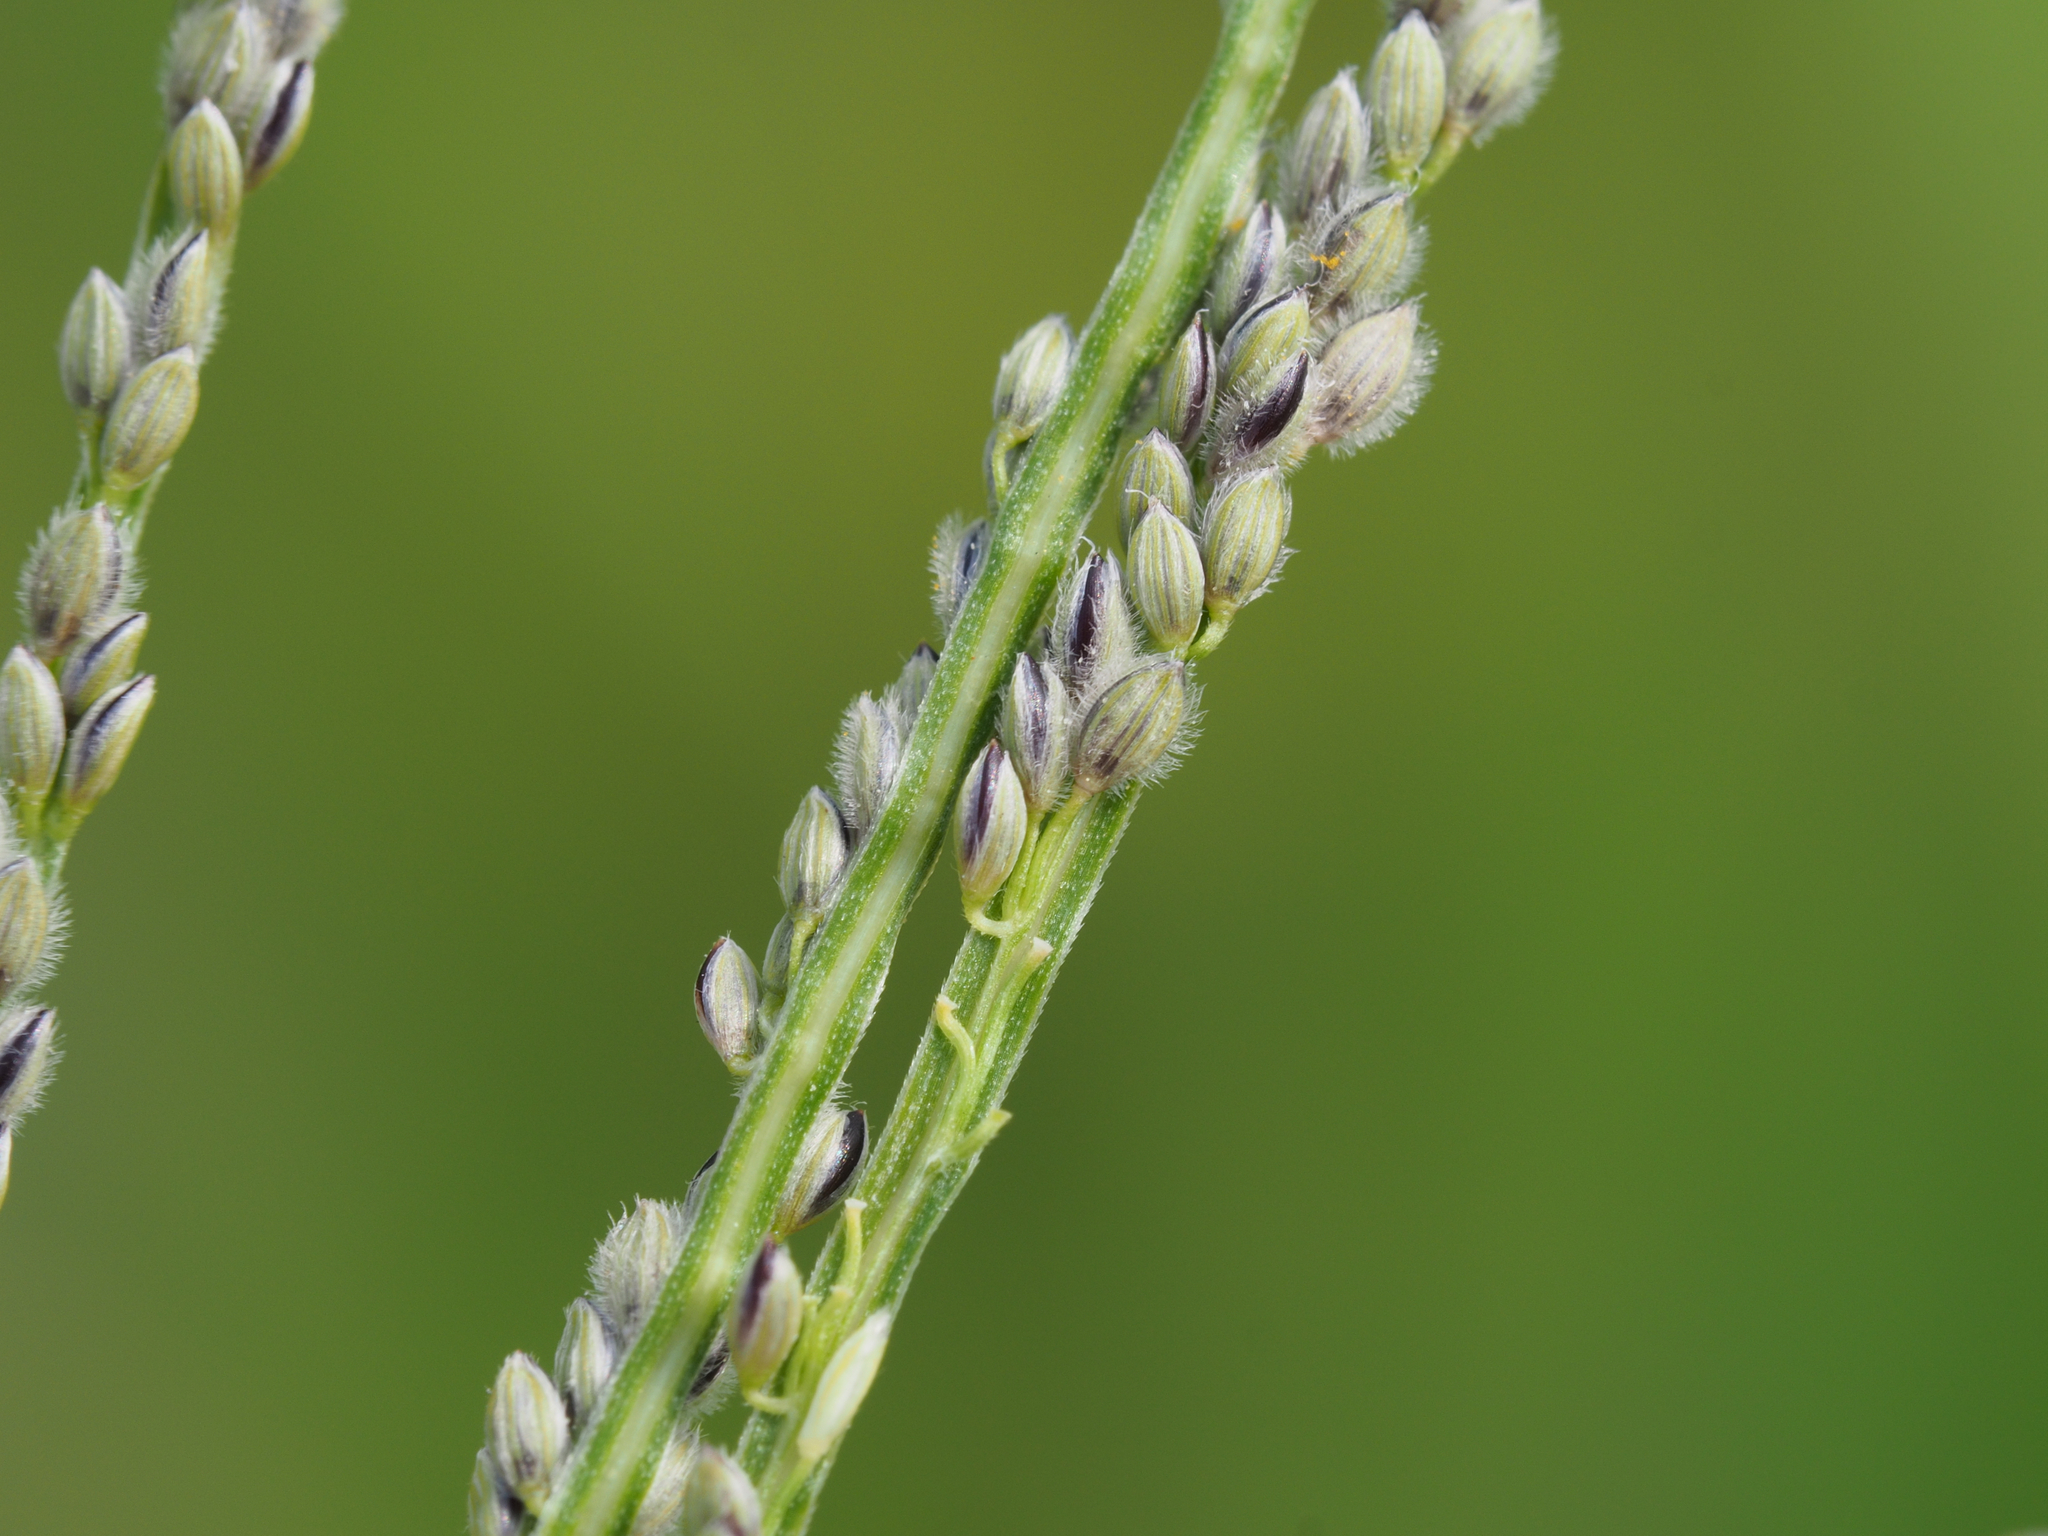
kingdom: Plantae
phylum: Tracheophyta
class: Liliopsida
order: Poales
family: Poaceae
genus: Digitaria
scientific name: Digitaria violascens
